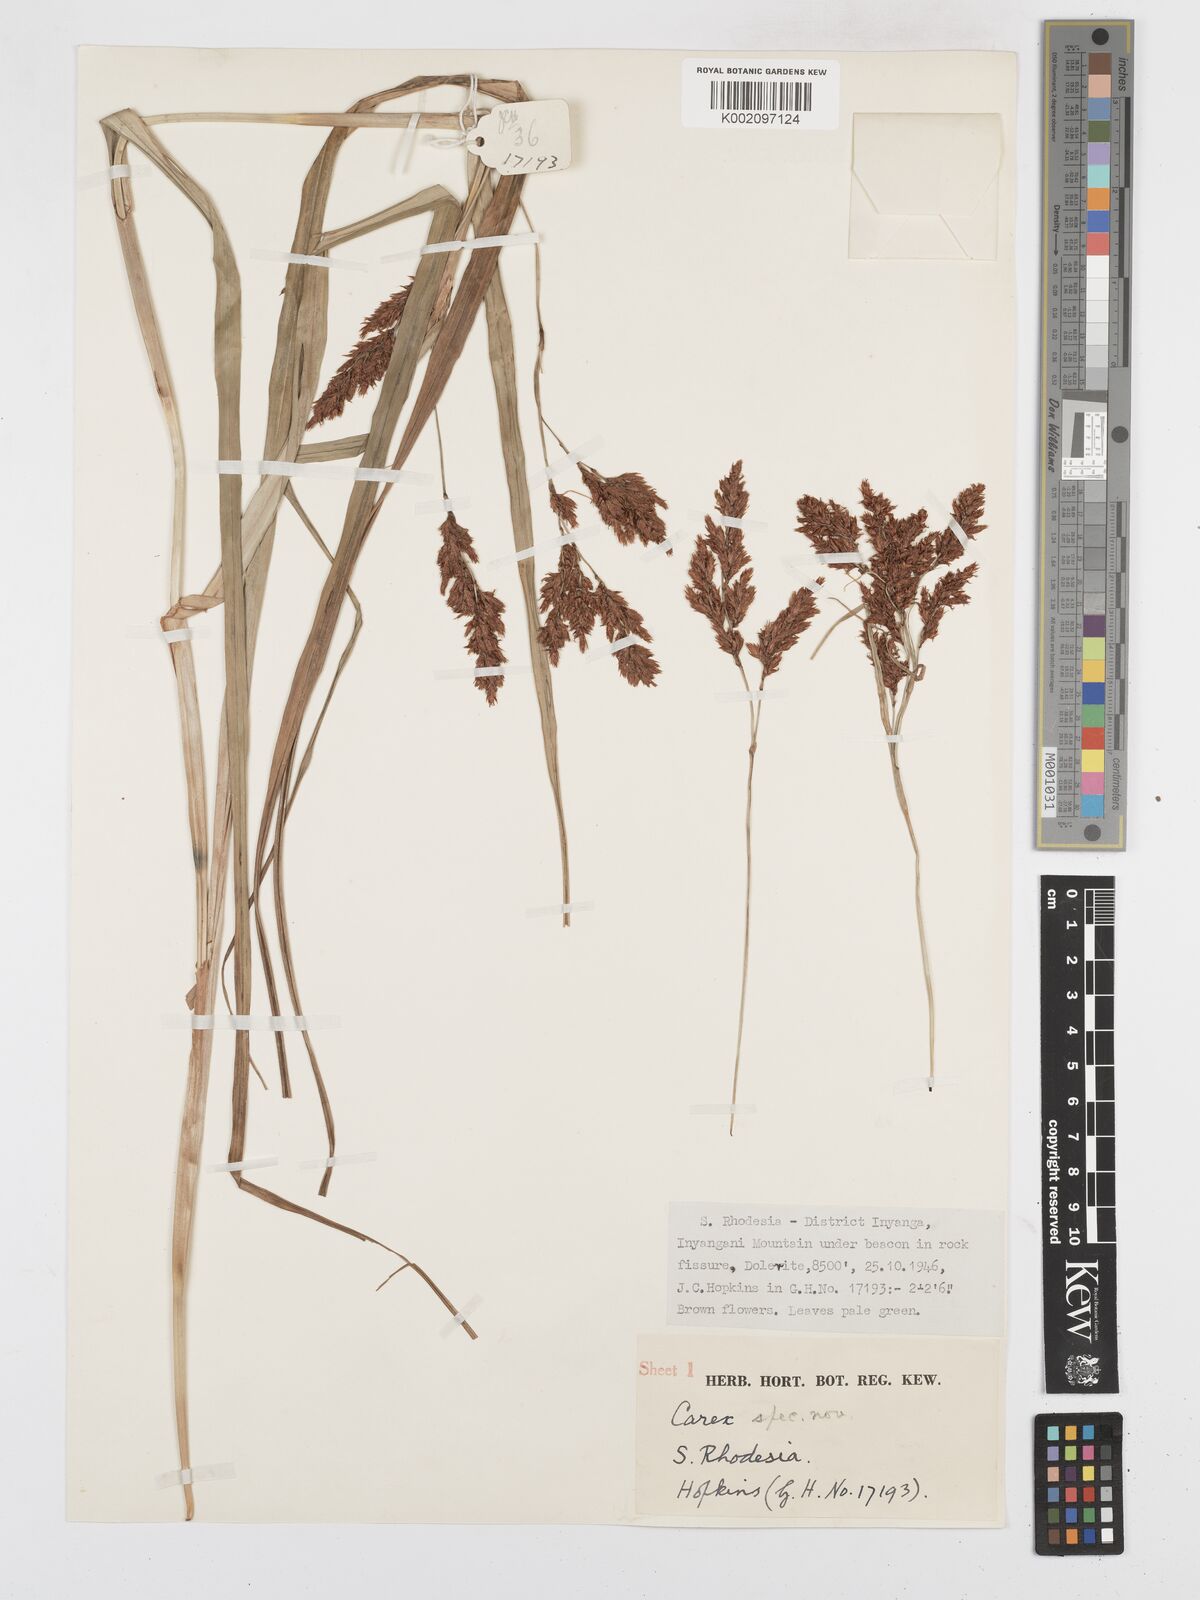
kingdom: Plantae
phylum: Tracheophyta
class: Liliopsida
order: Poales
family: Cyperaceae
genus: Carex
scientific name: Carex steudneri
